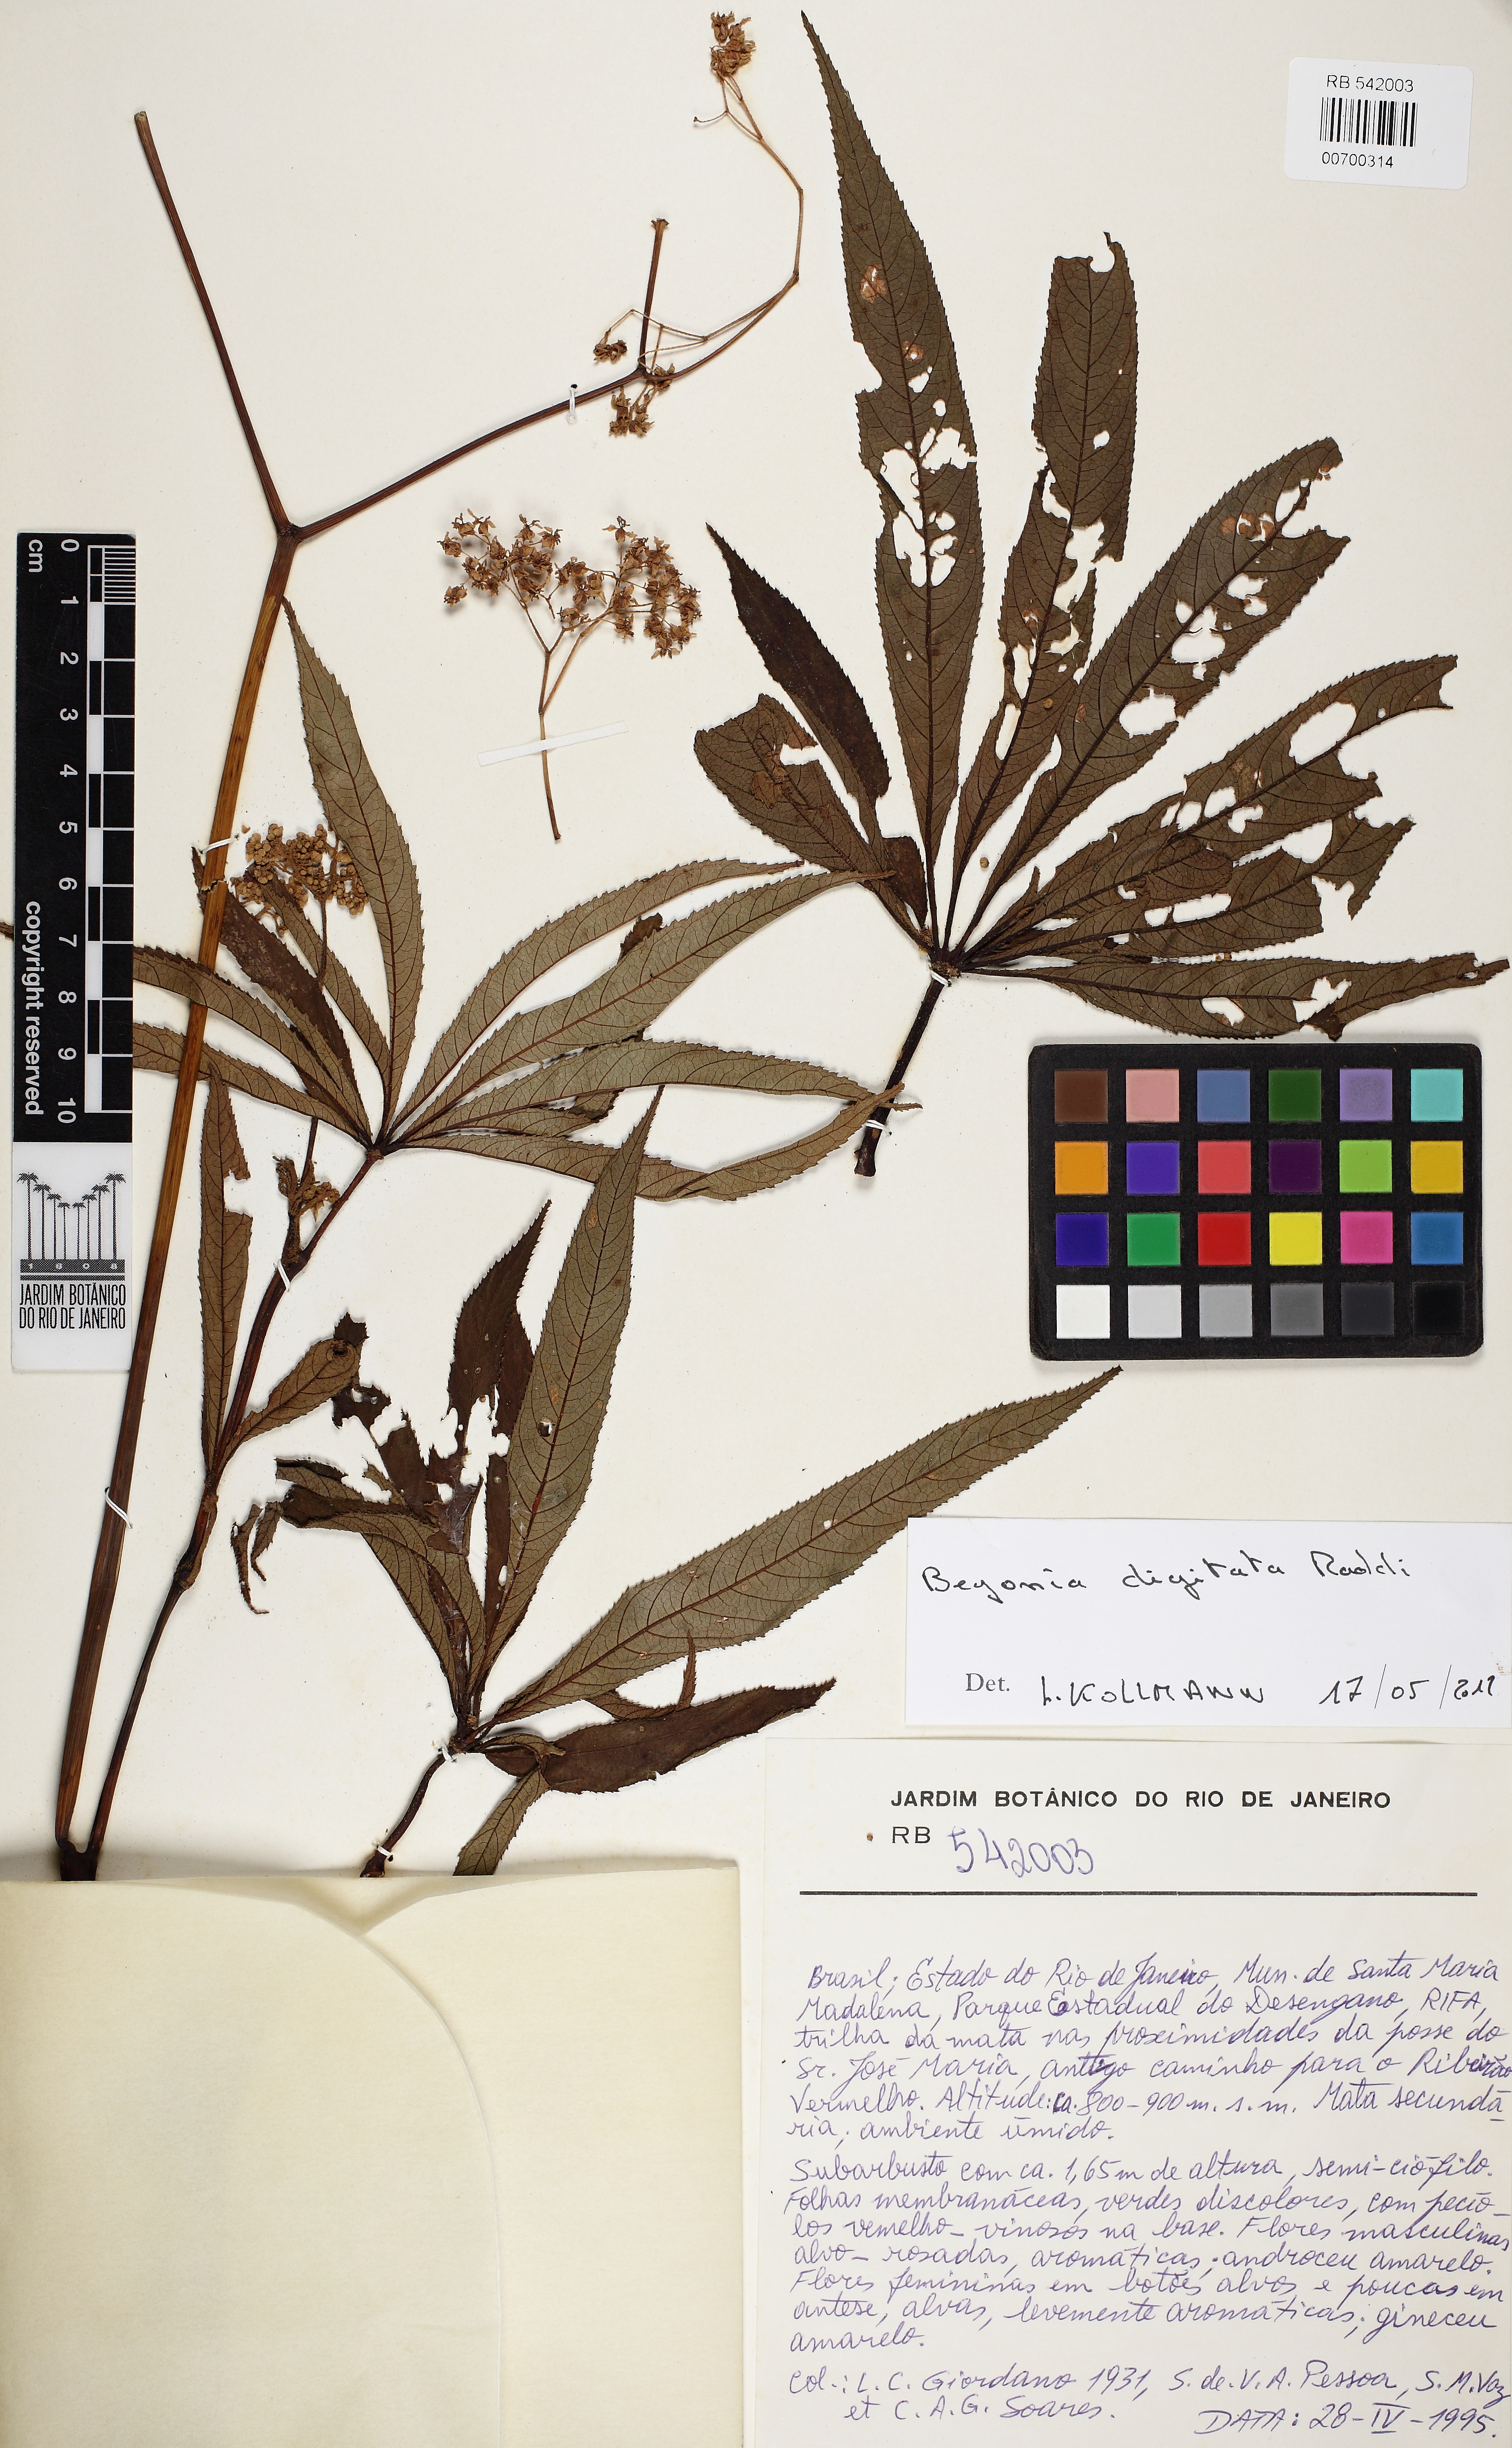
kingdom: Plantae
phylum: Tracheophyta
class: Magnoliopsida
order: Cucurbitales
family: Begoniaceae
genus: Begonia
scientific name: Begonia luxurians
